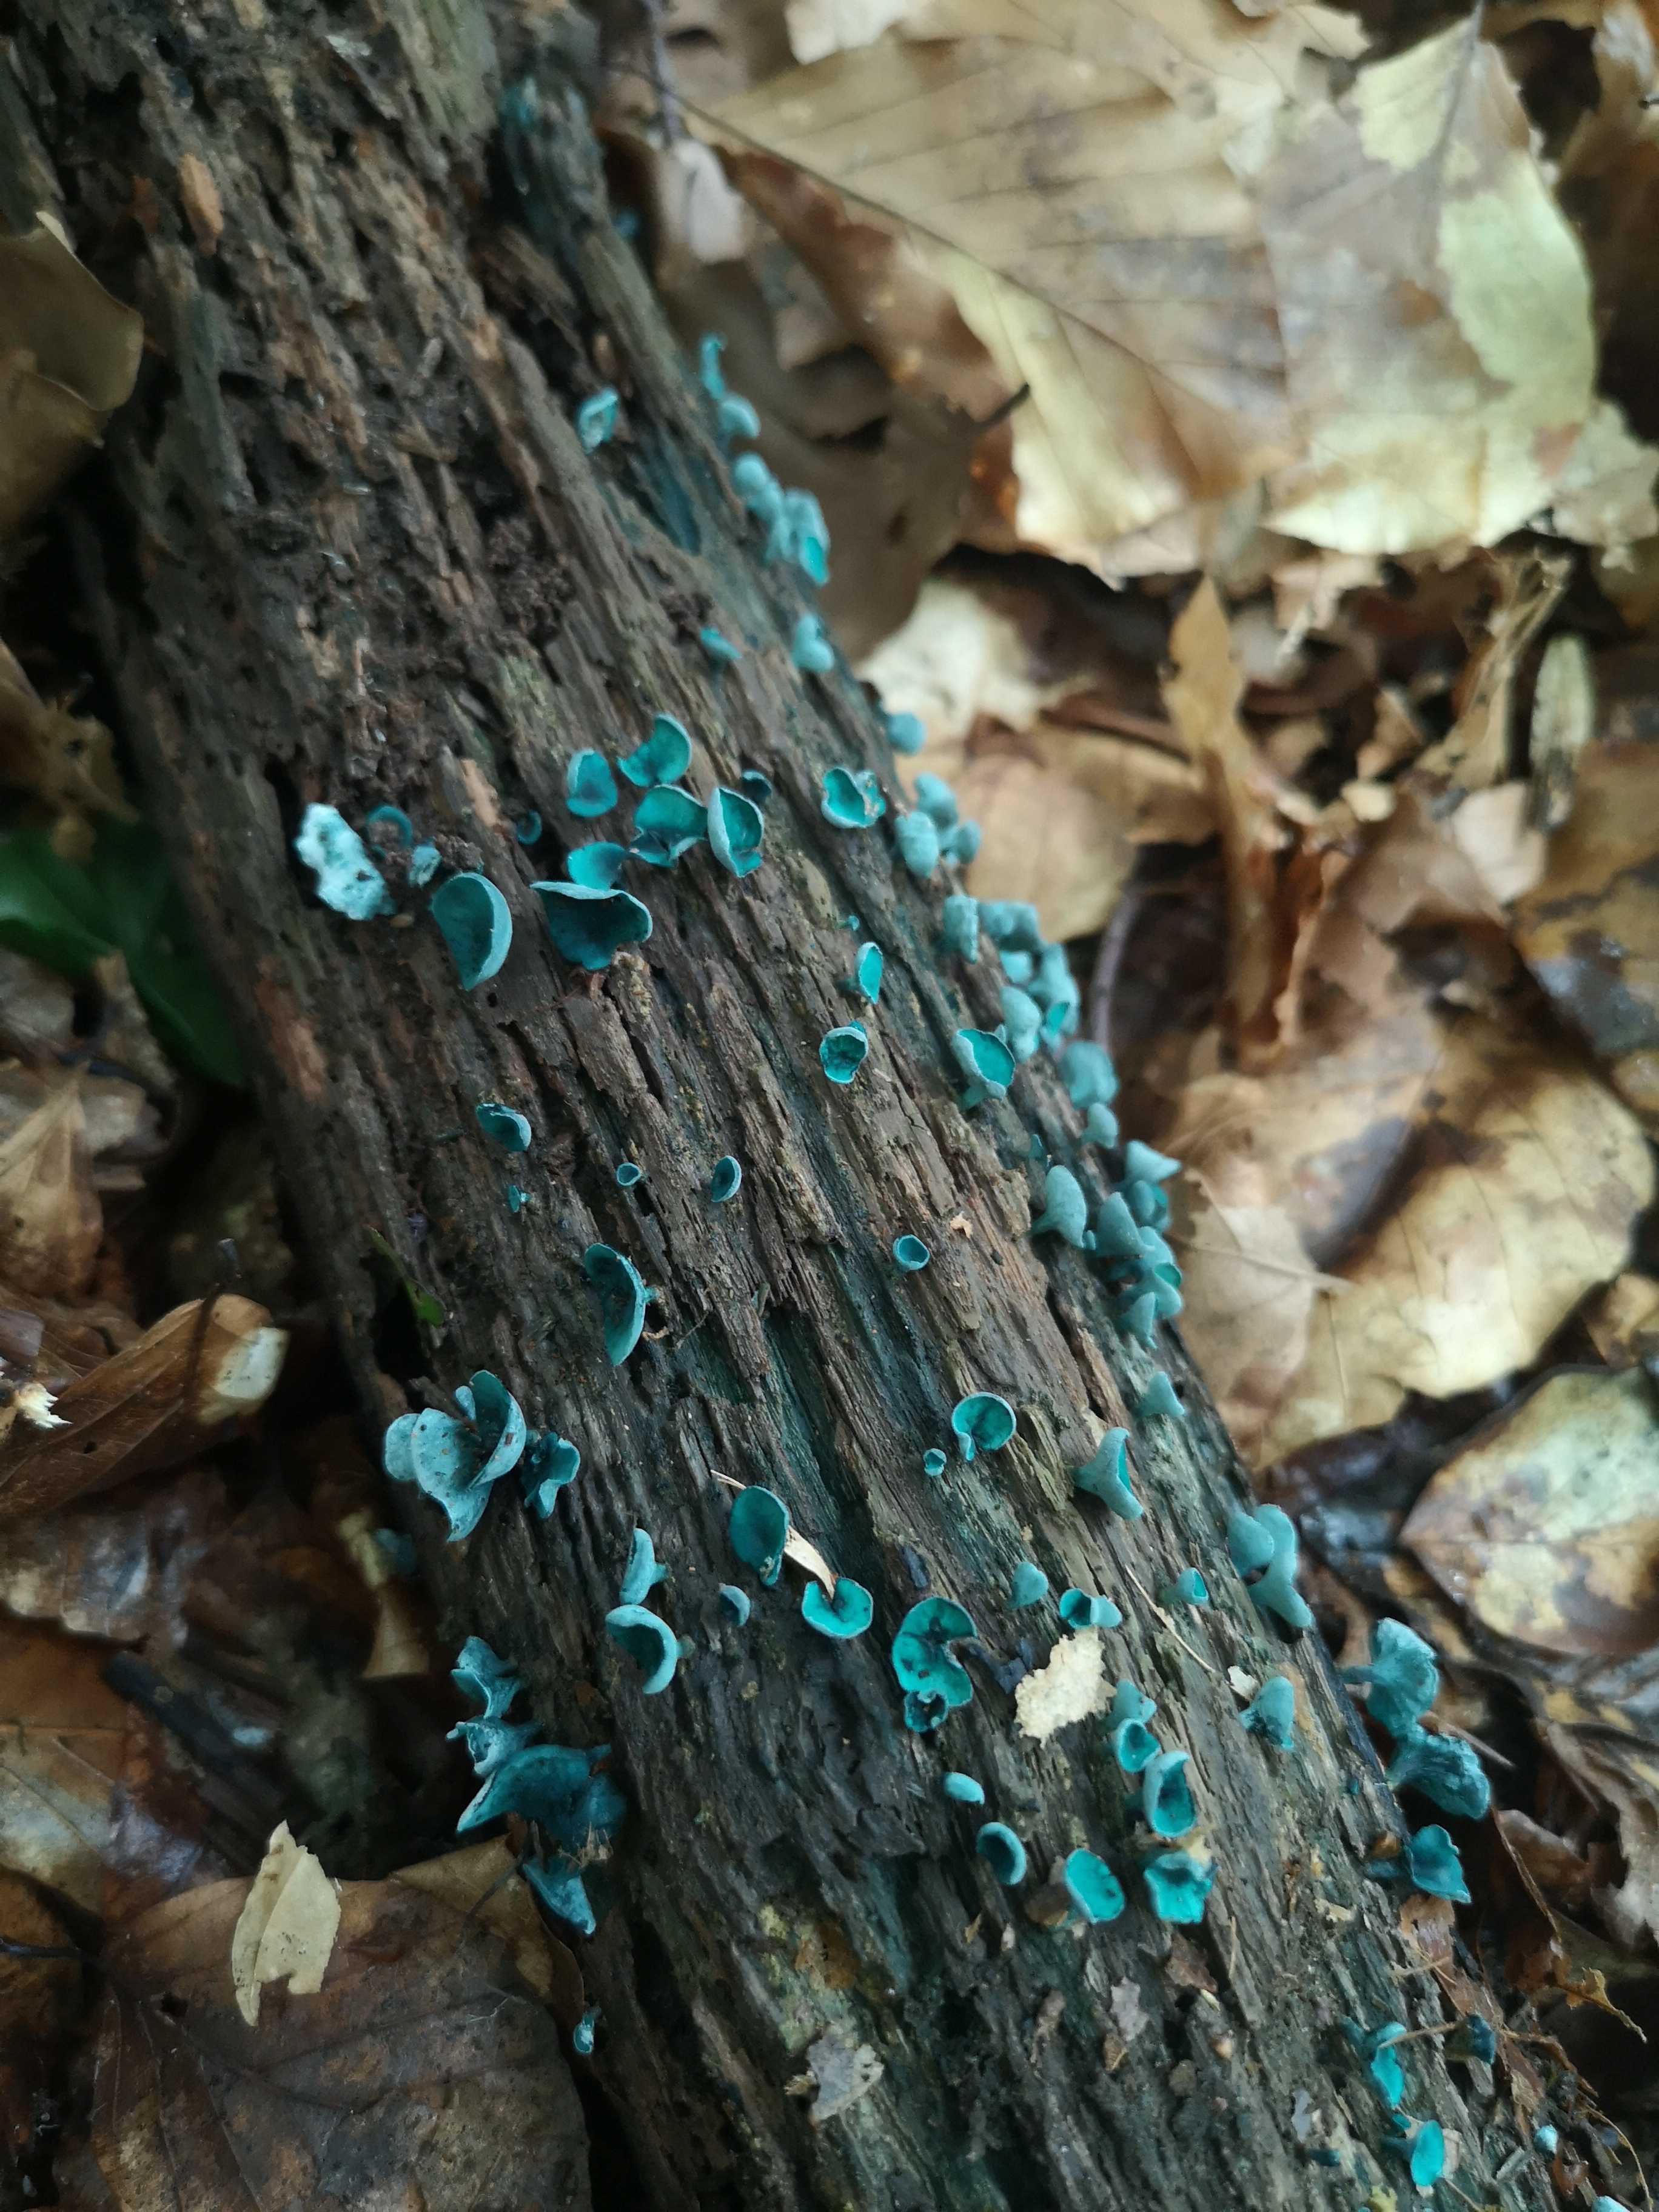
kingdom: Fungi
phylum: Ascomycota
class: Leotiomycetes
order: Helotiales
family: Chlorociboriaceae
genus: Chlorociboria
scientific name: Chlorociboria aeruginascens
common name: almindelig grønskive
